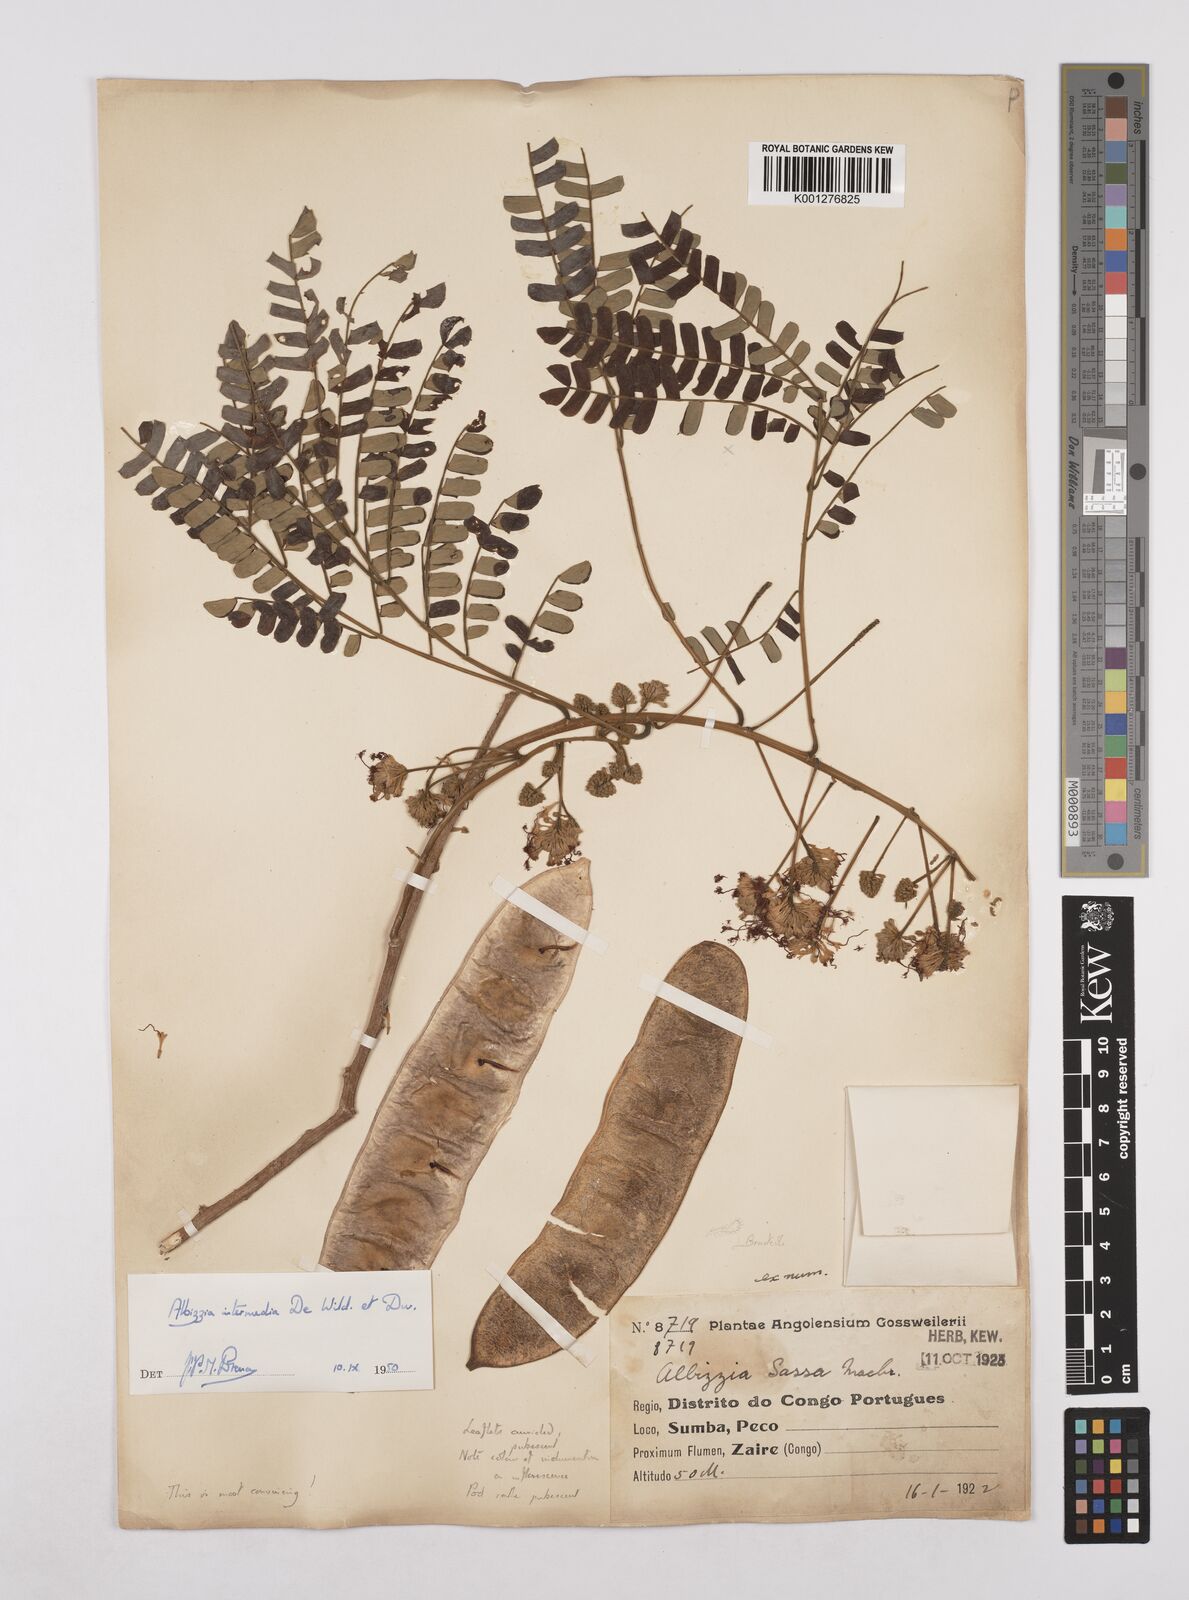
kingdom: Plantae
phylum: Tracheophyta
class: Magnoliopsida
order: Fabales
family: Fabaceae
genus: Albizia
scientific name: Albizia
